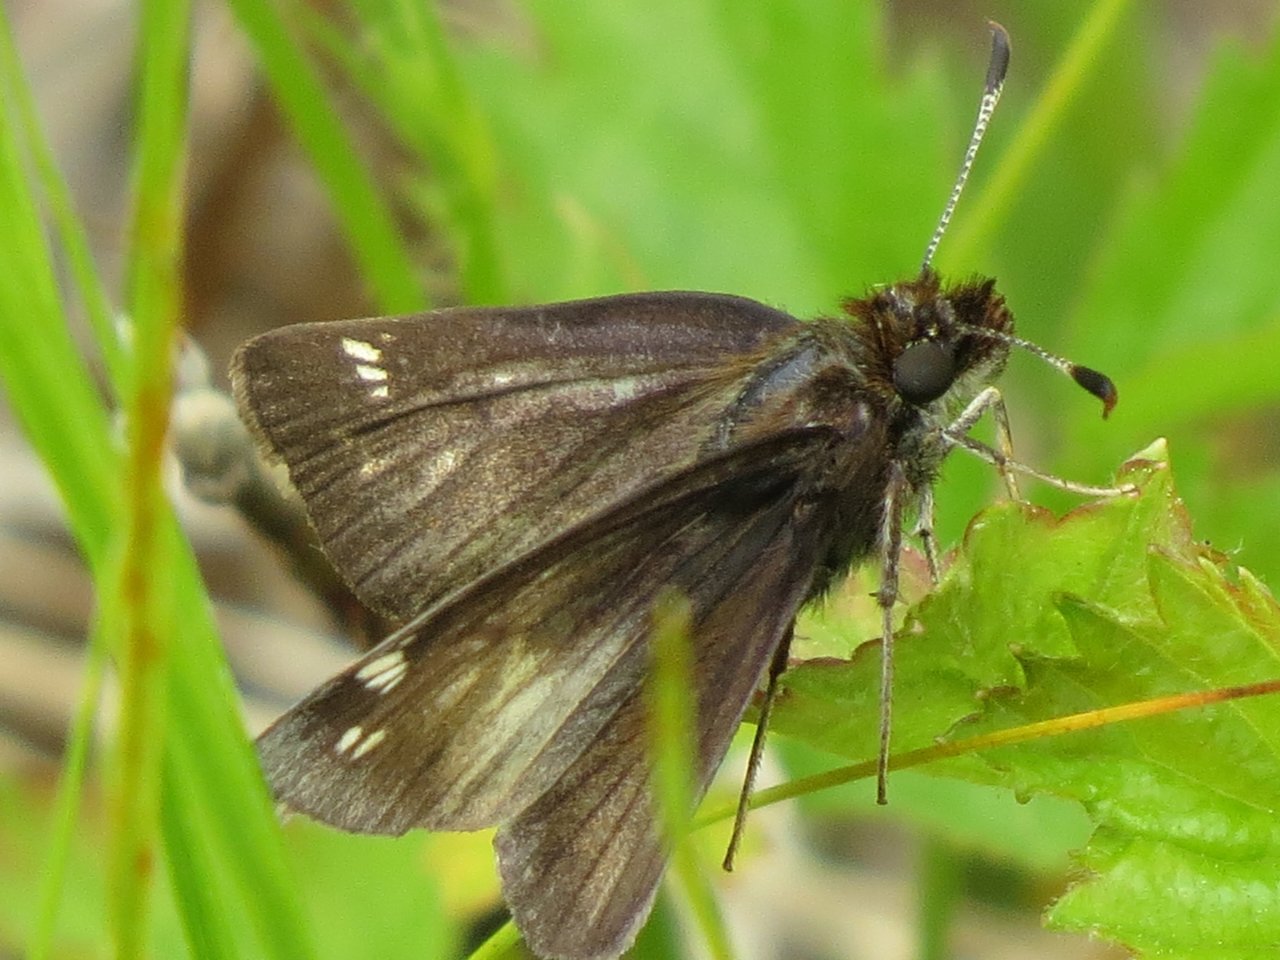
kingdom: Animalia
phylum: Arthropoda
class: Insecta
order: Lepidoptera
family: Hesperiidae
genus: Lon
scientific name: Lon hobomok
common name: Hobomok Skipper
